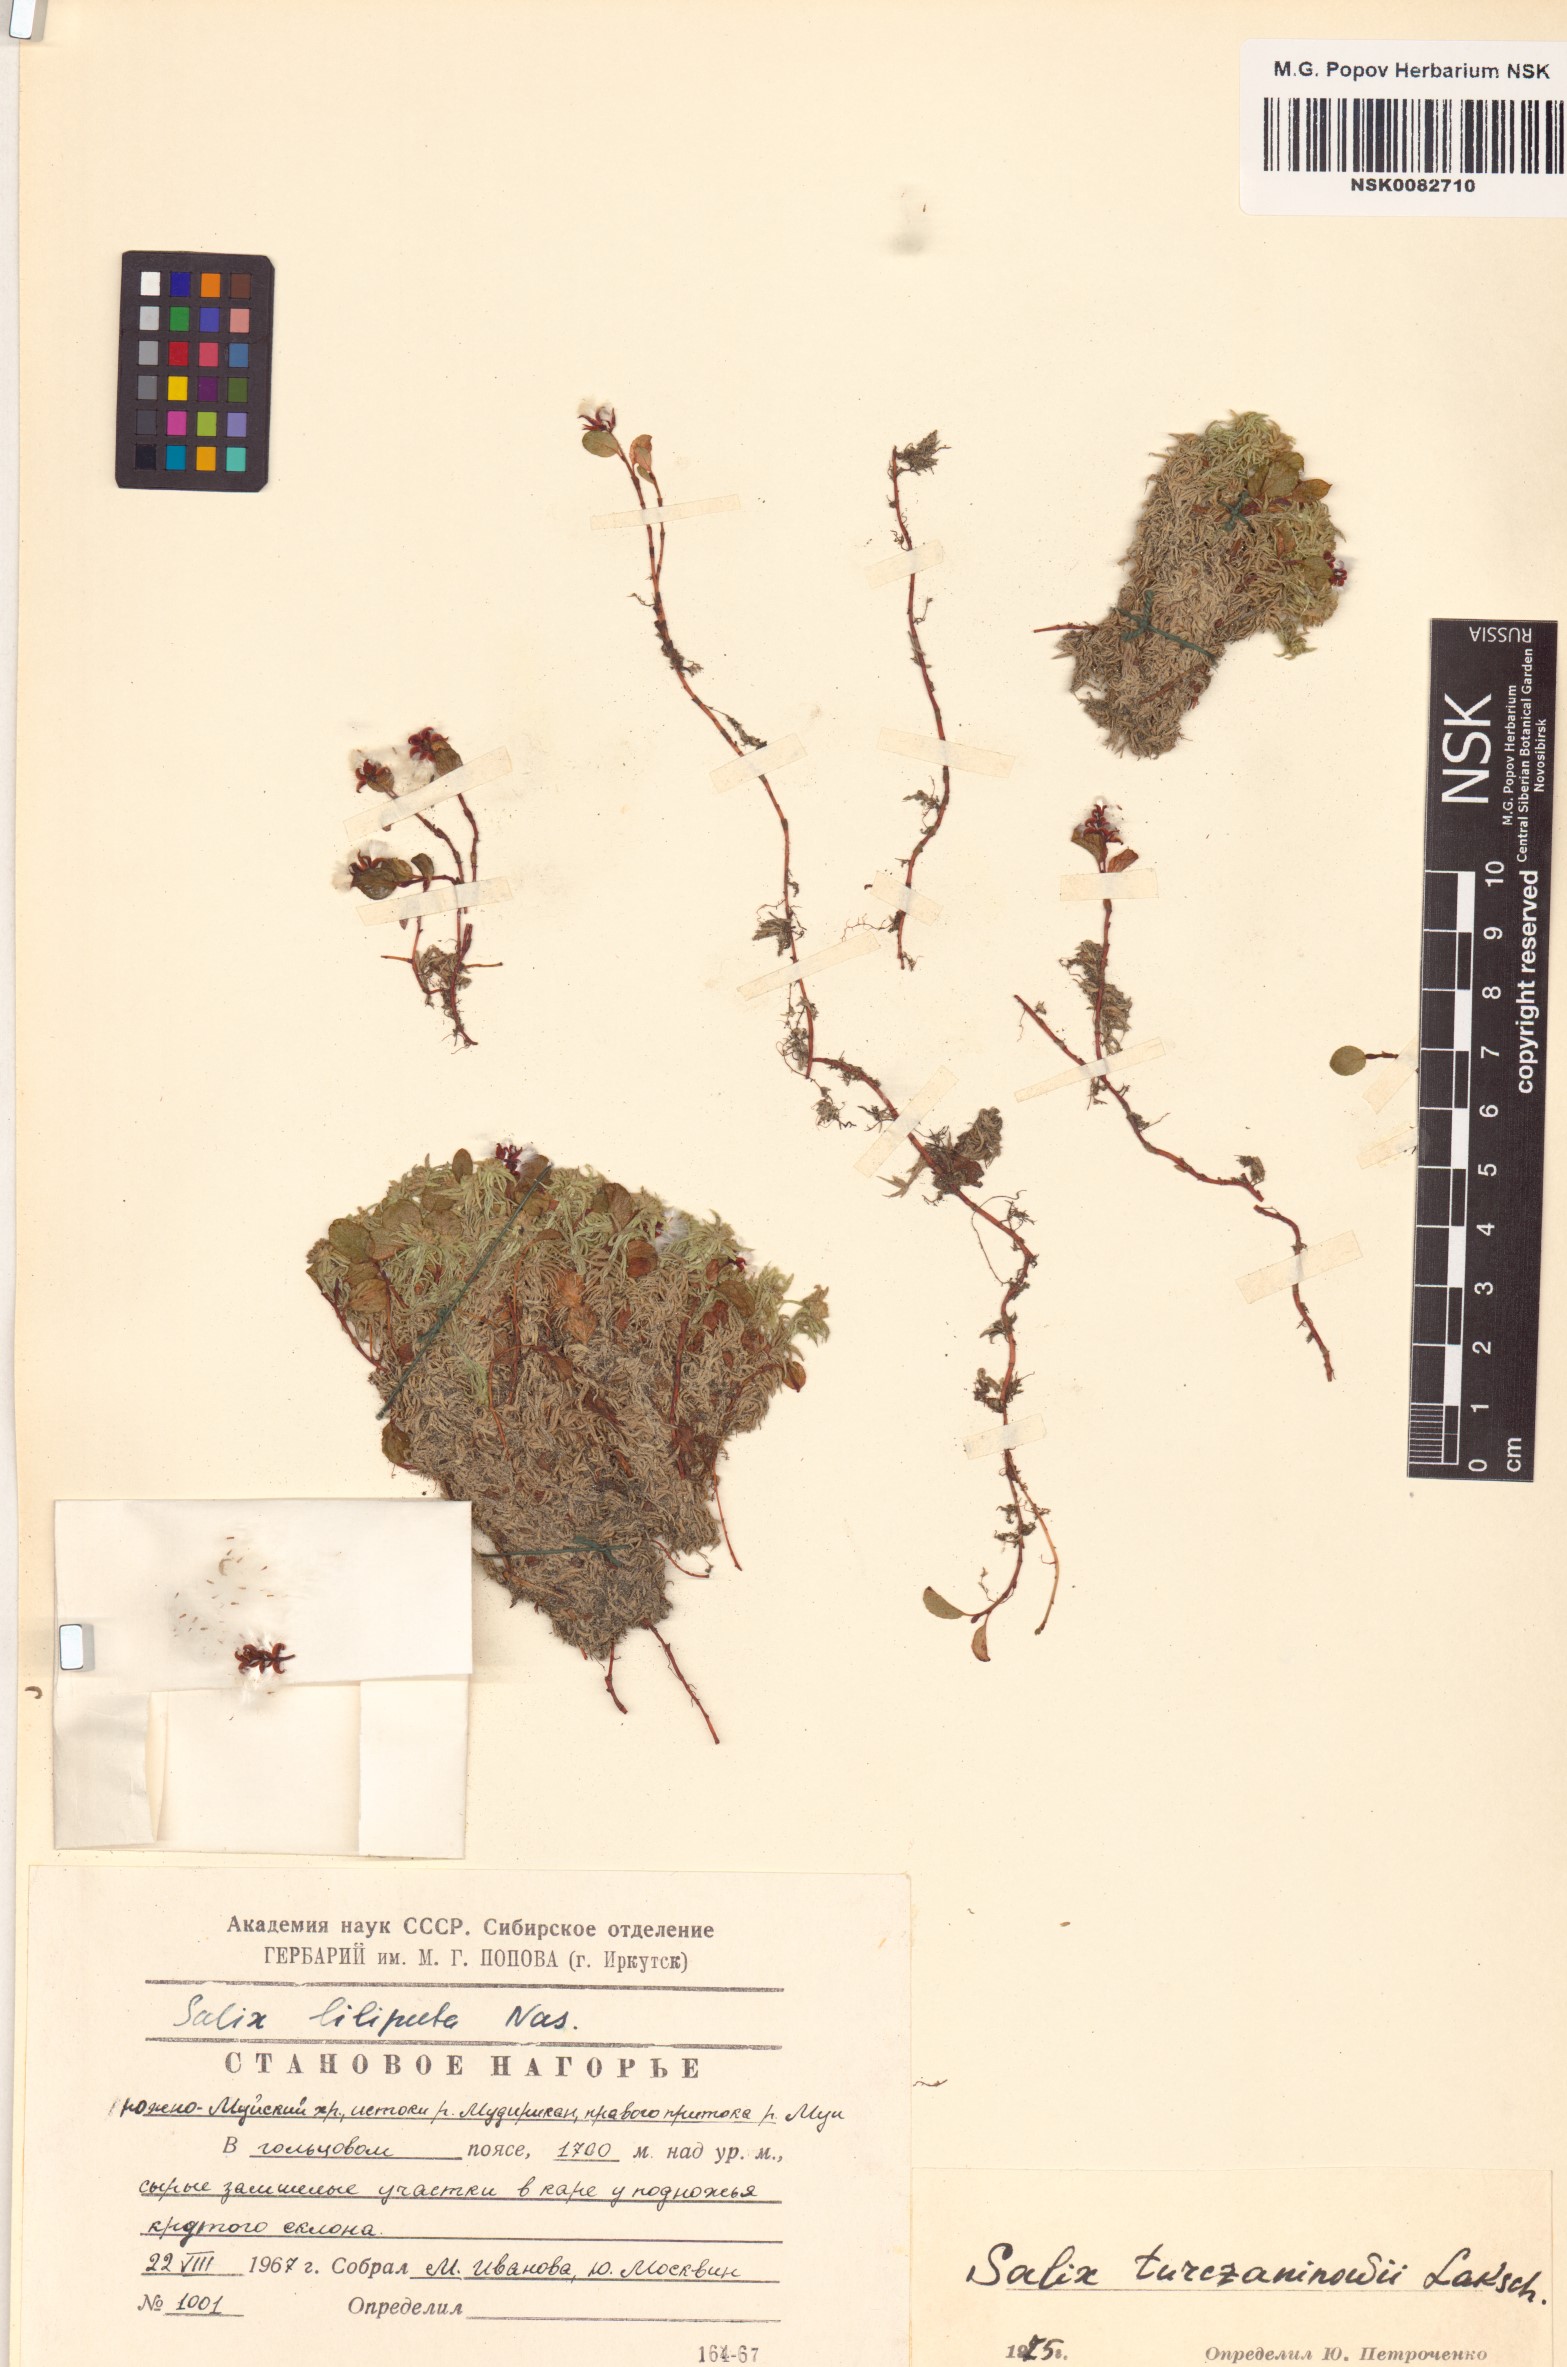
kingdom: Plantae
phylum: Tracheophyta
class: Magnoliopsida
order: Malpighiales
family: Salicaceae
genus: Salix
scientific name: Salix turczaninowii
